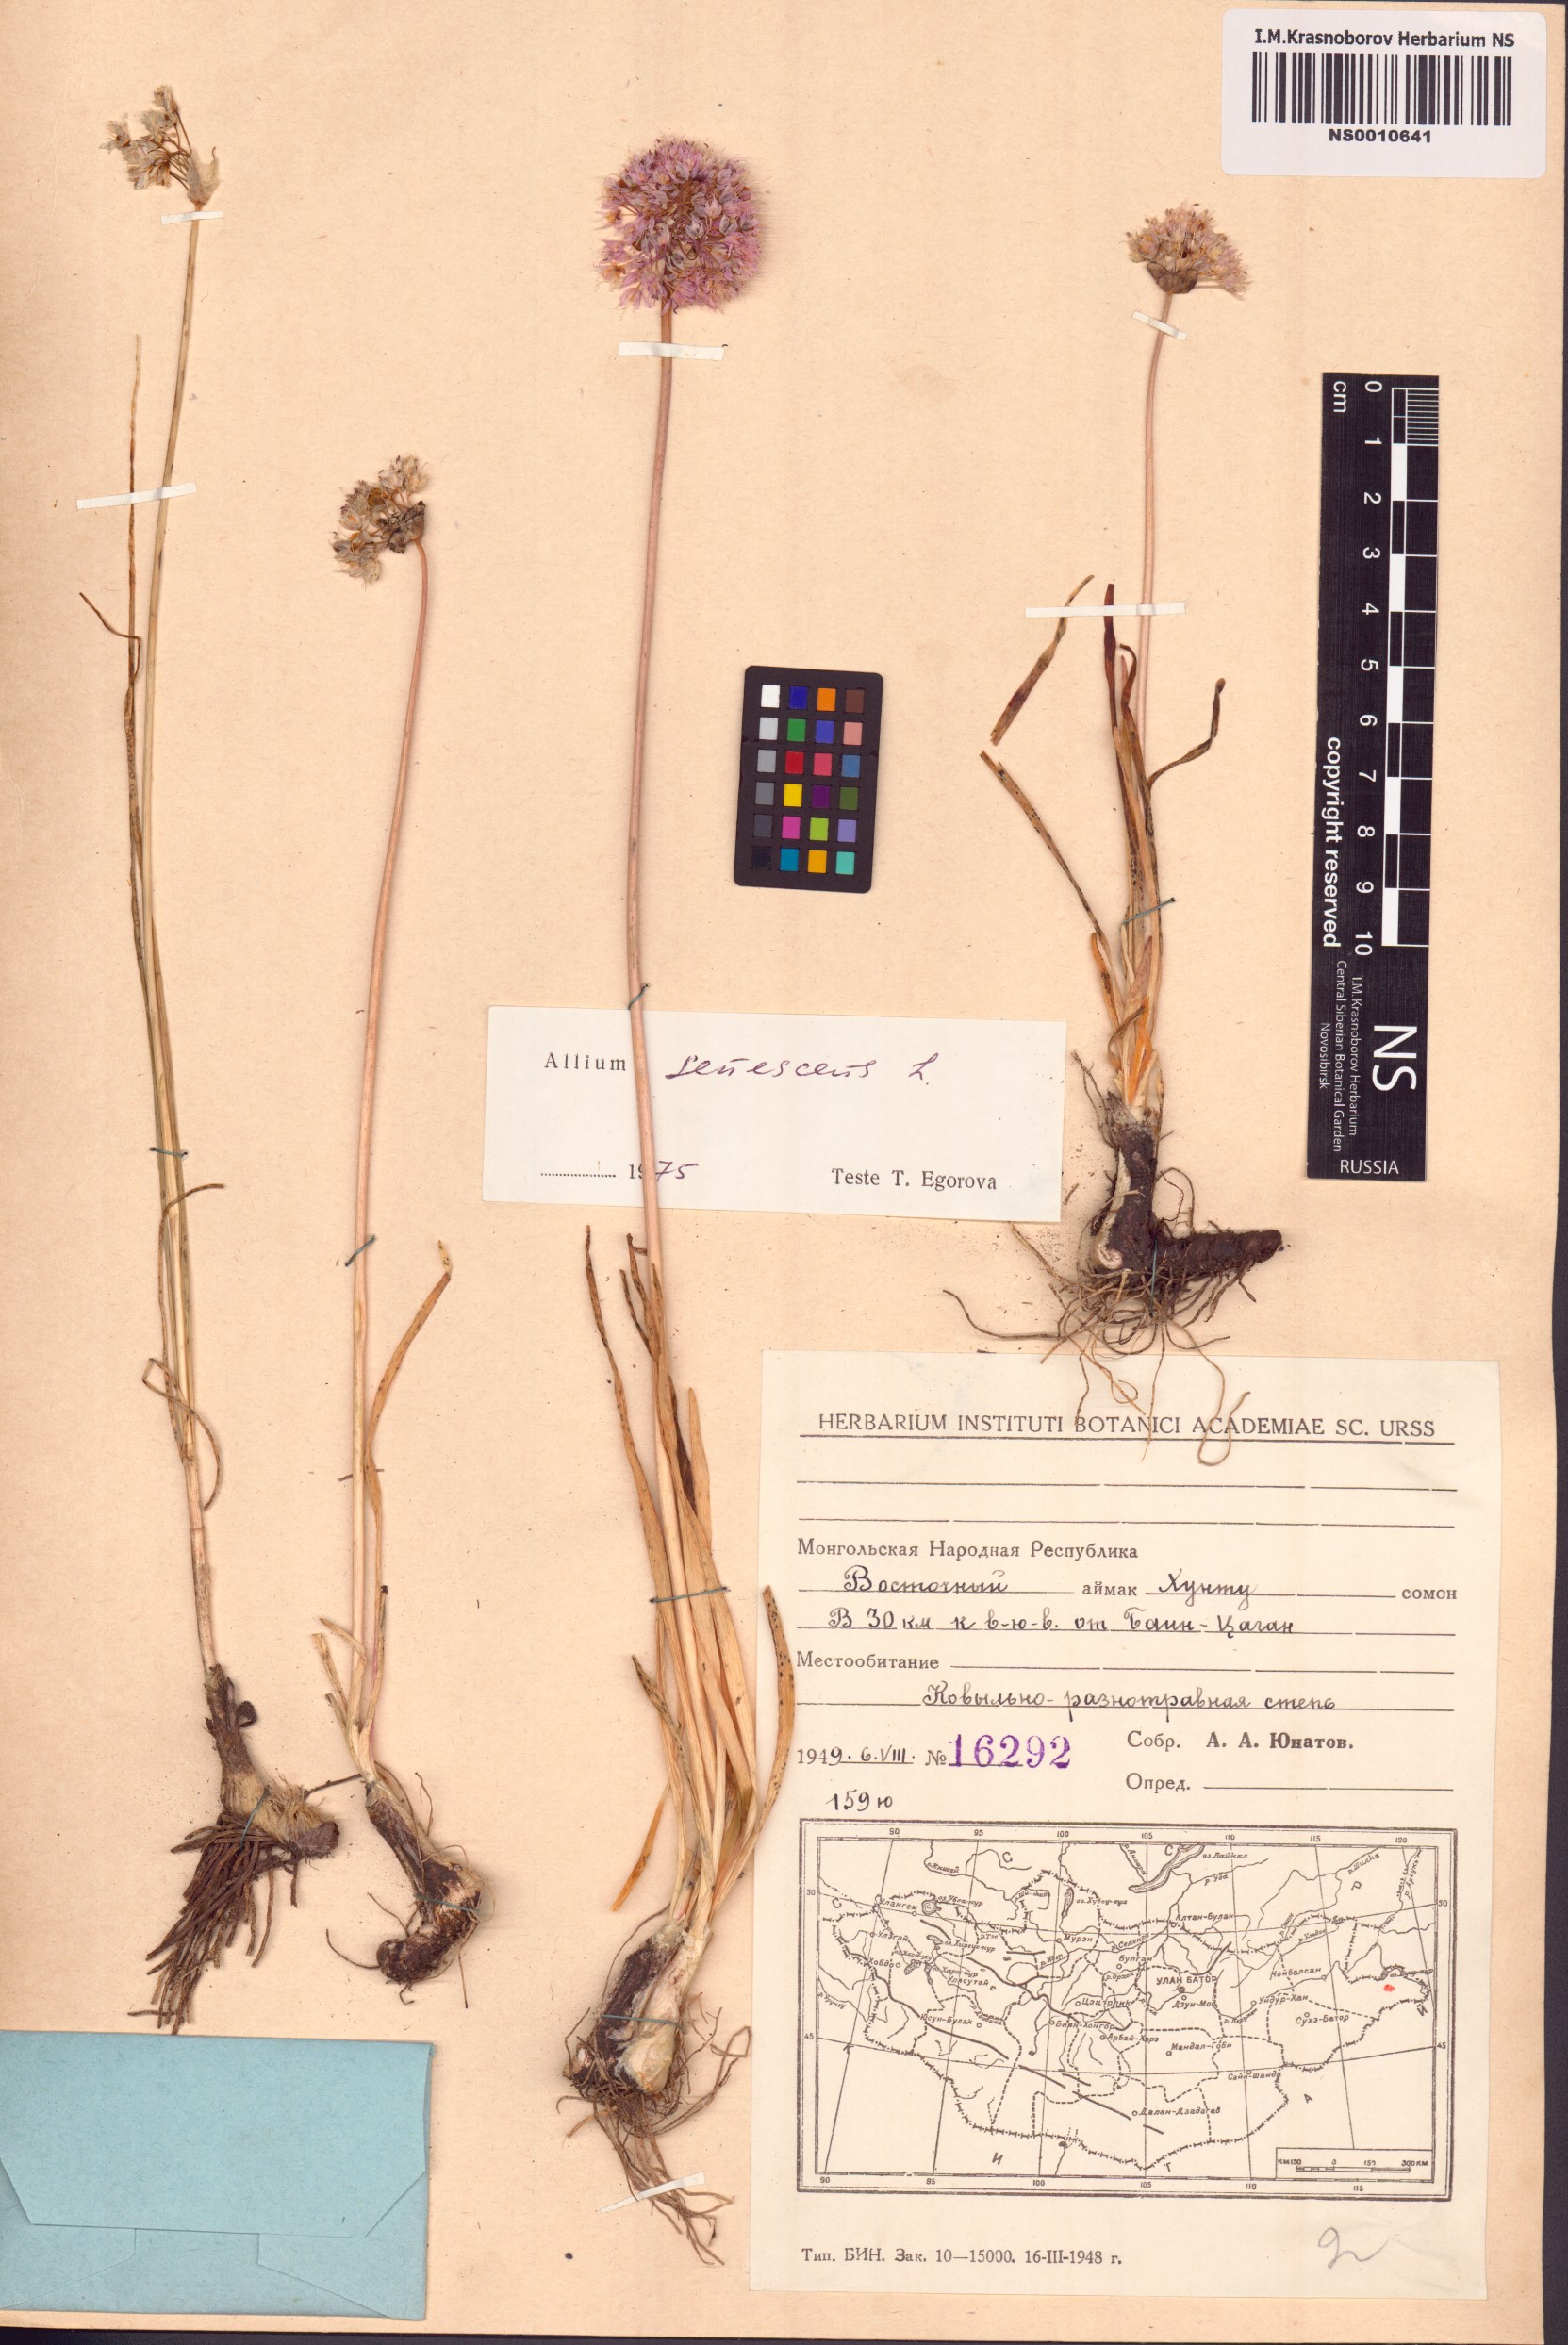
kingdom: Plantae
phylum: Tracheophyta
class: Liliopsida
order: Asparagales
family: Amaryllidaceae
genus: Allium
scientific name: Allium senescens
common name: German garlic
